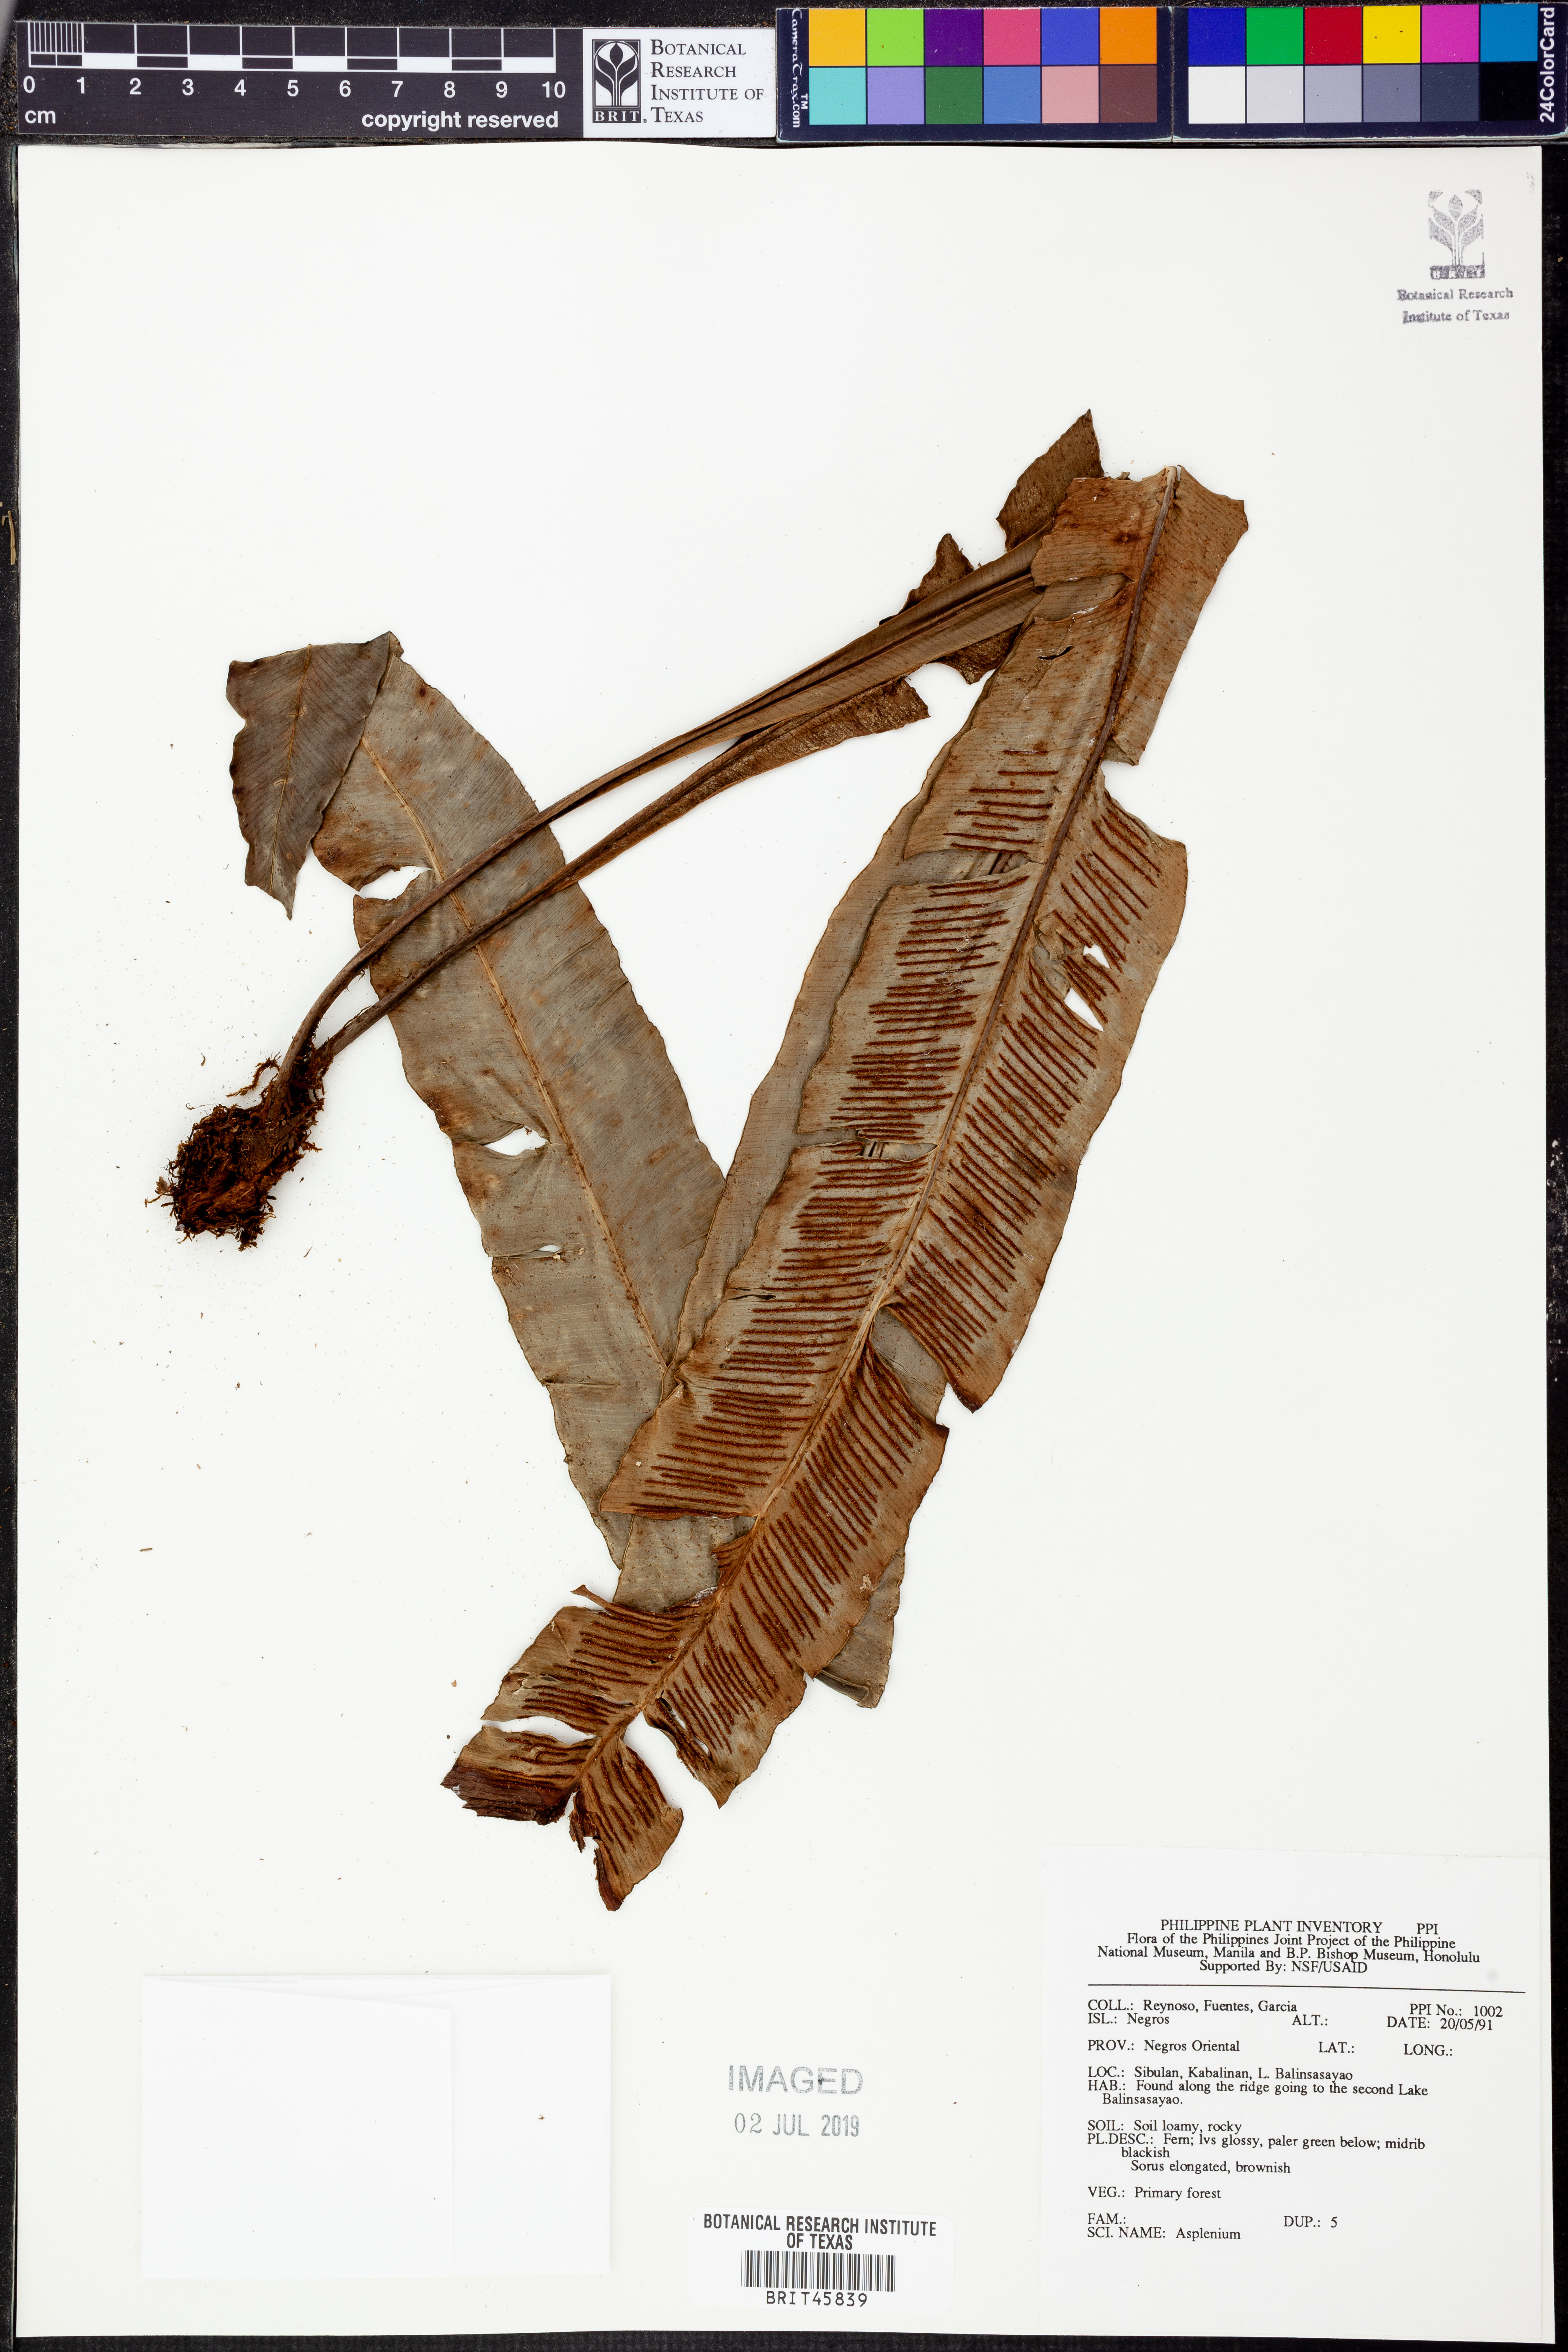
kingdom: Plantae
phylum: Tracheophyta
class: Polypodiopsida
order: Polypodiales
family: Aspleniaceae
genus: Asplenium
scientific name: Asplenium
